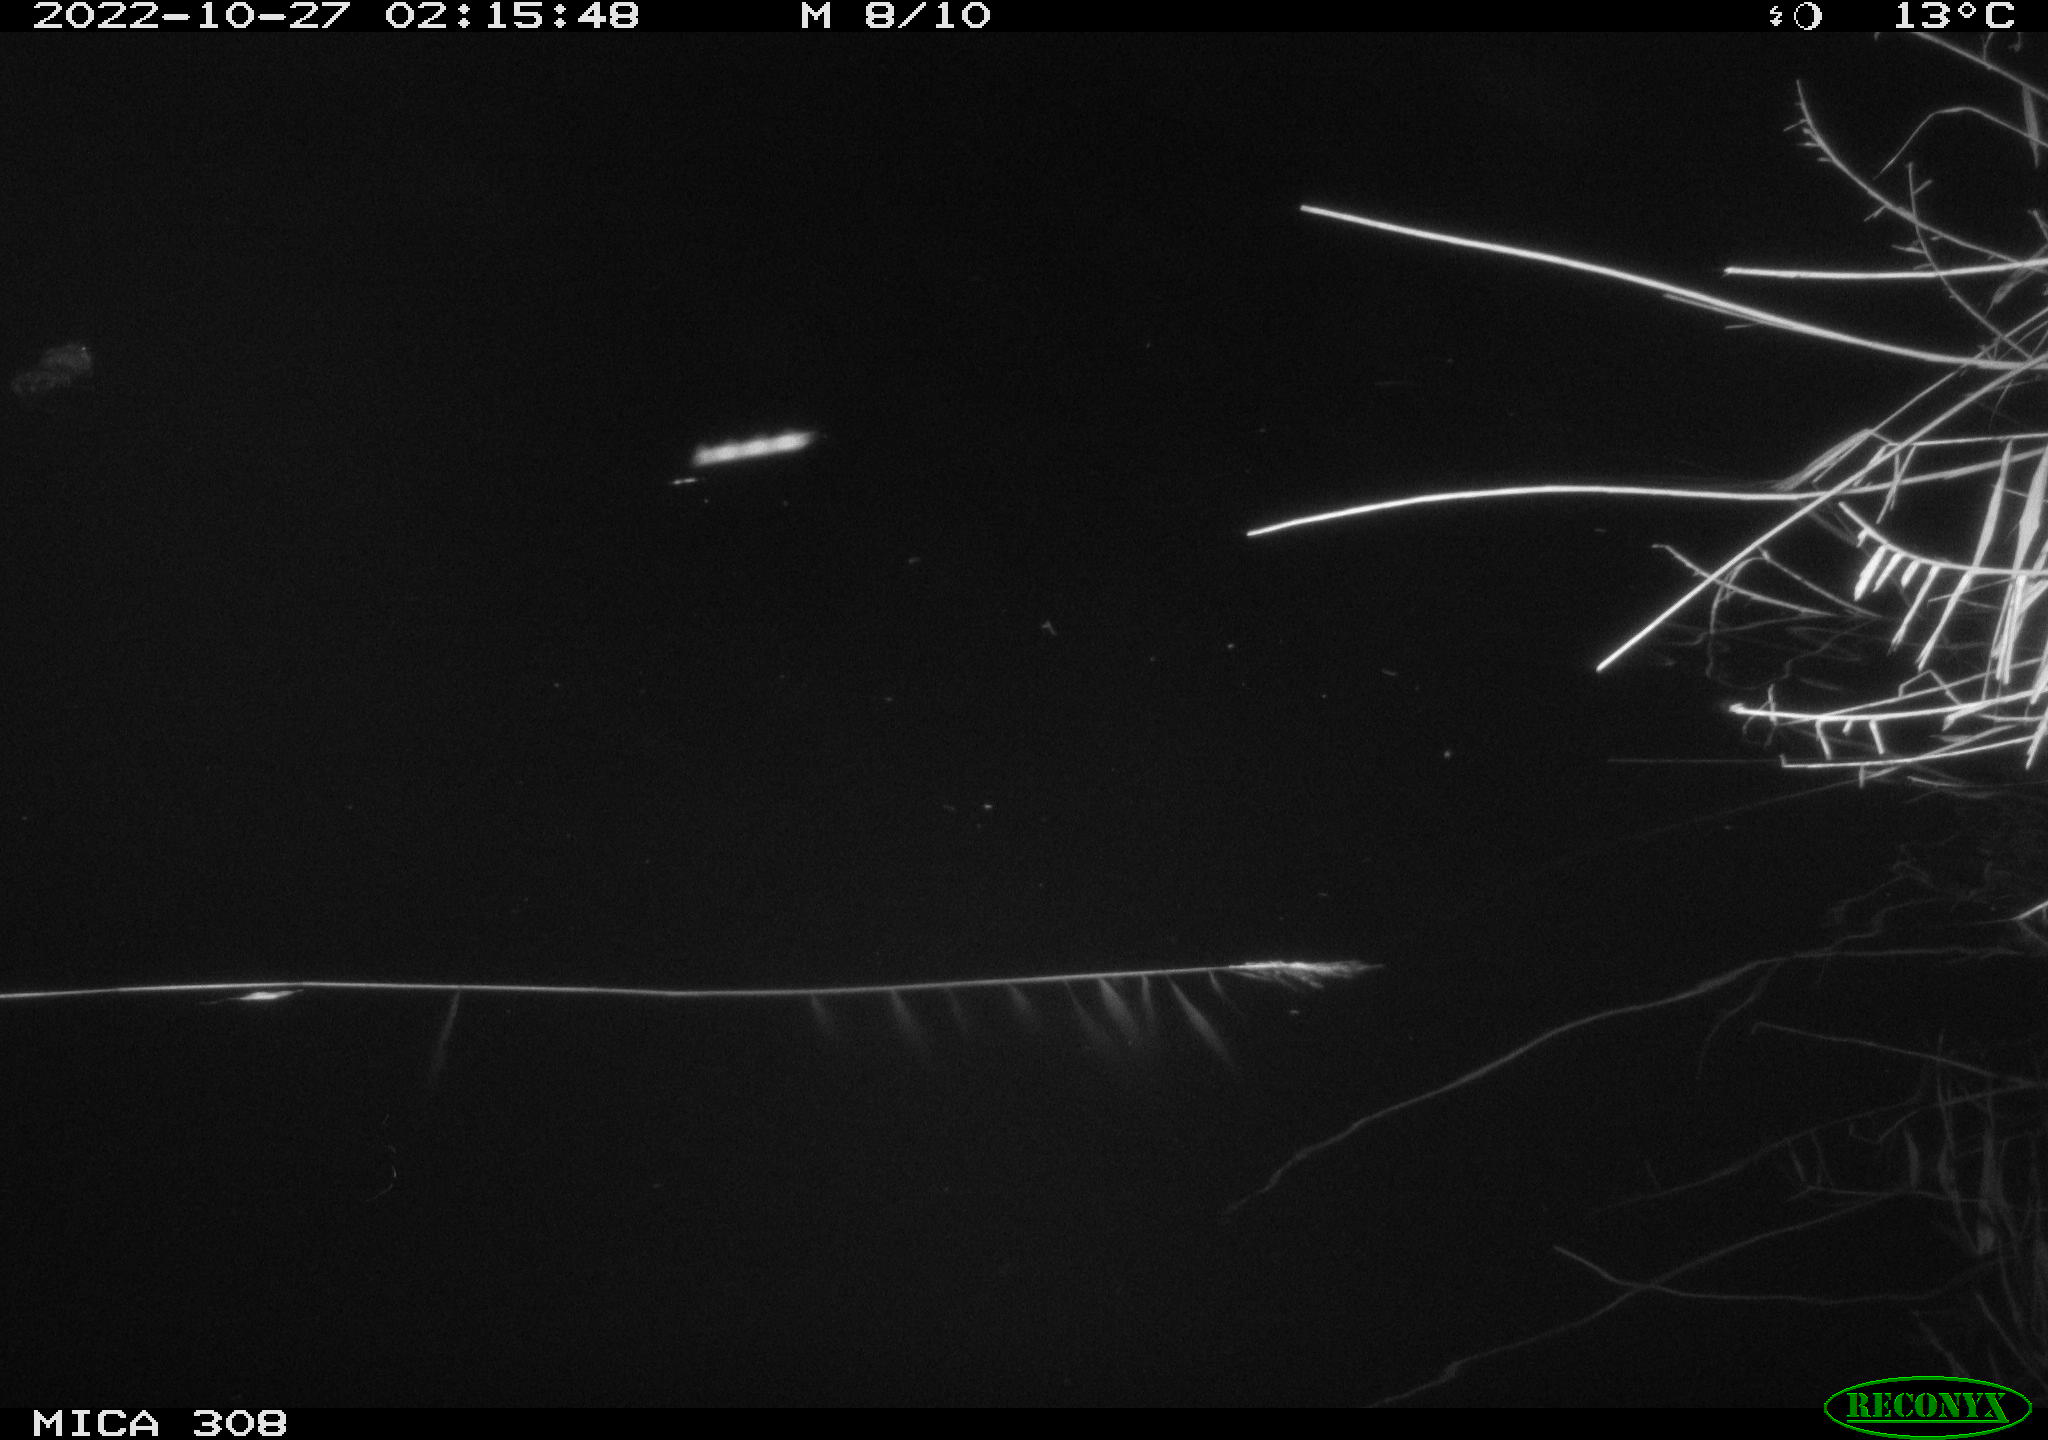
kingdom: Animalia
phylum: Chordata
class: Mammalia
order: Rodentia
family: Cricetidae
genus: Ondatra
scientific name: Ondatra zibethicus
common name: Muskrat
